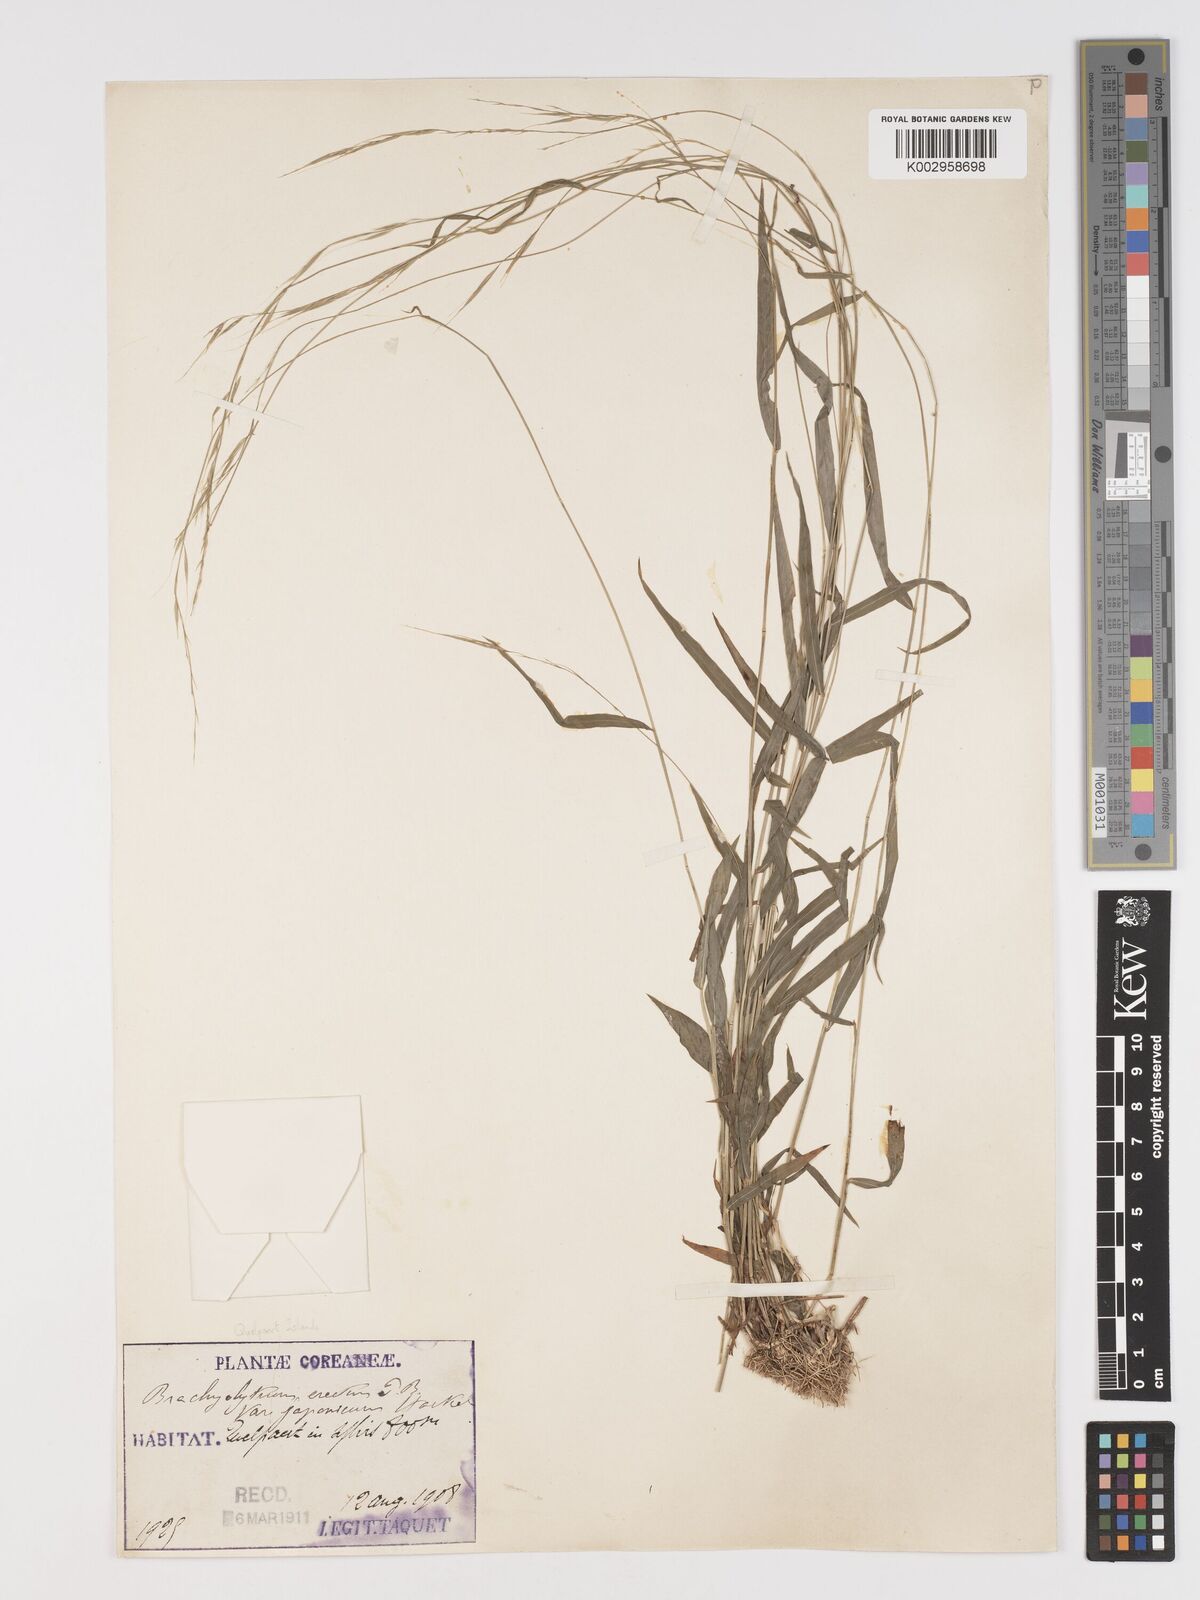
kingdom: Plantae
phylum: Tracheophyta
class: Liliopsida
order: Poales
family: Poaceae
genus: Brachyelytrum
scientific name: Brachyelytrum japonicum
